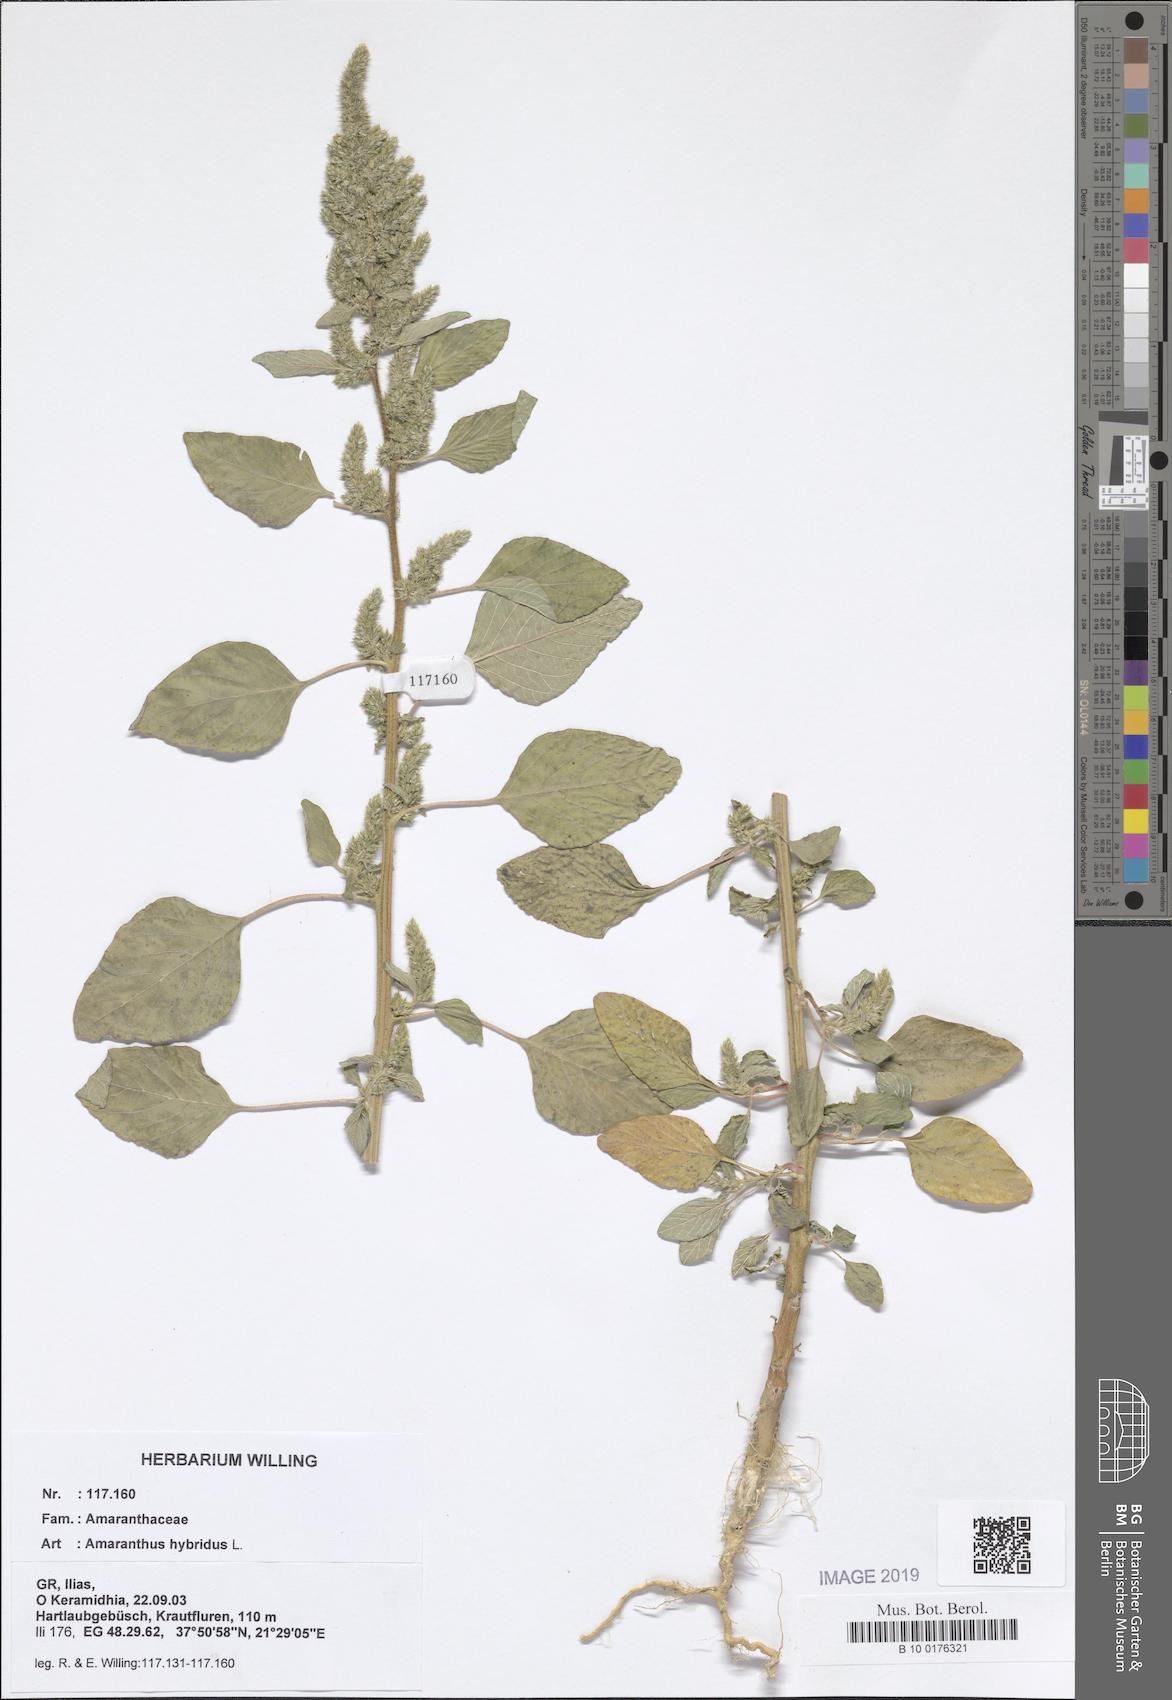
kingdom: Plantae
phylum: Tracheophyta
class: Magnoliopsida
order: Caryophyllales
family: Amaranthaceae
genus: Amaranthus
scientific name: Amaranthus hybridus
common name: Green amaranth
